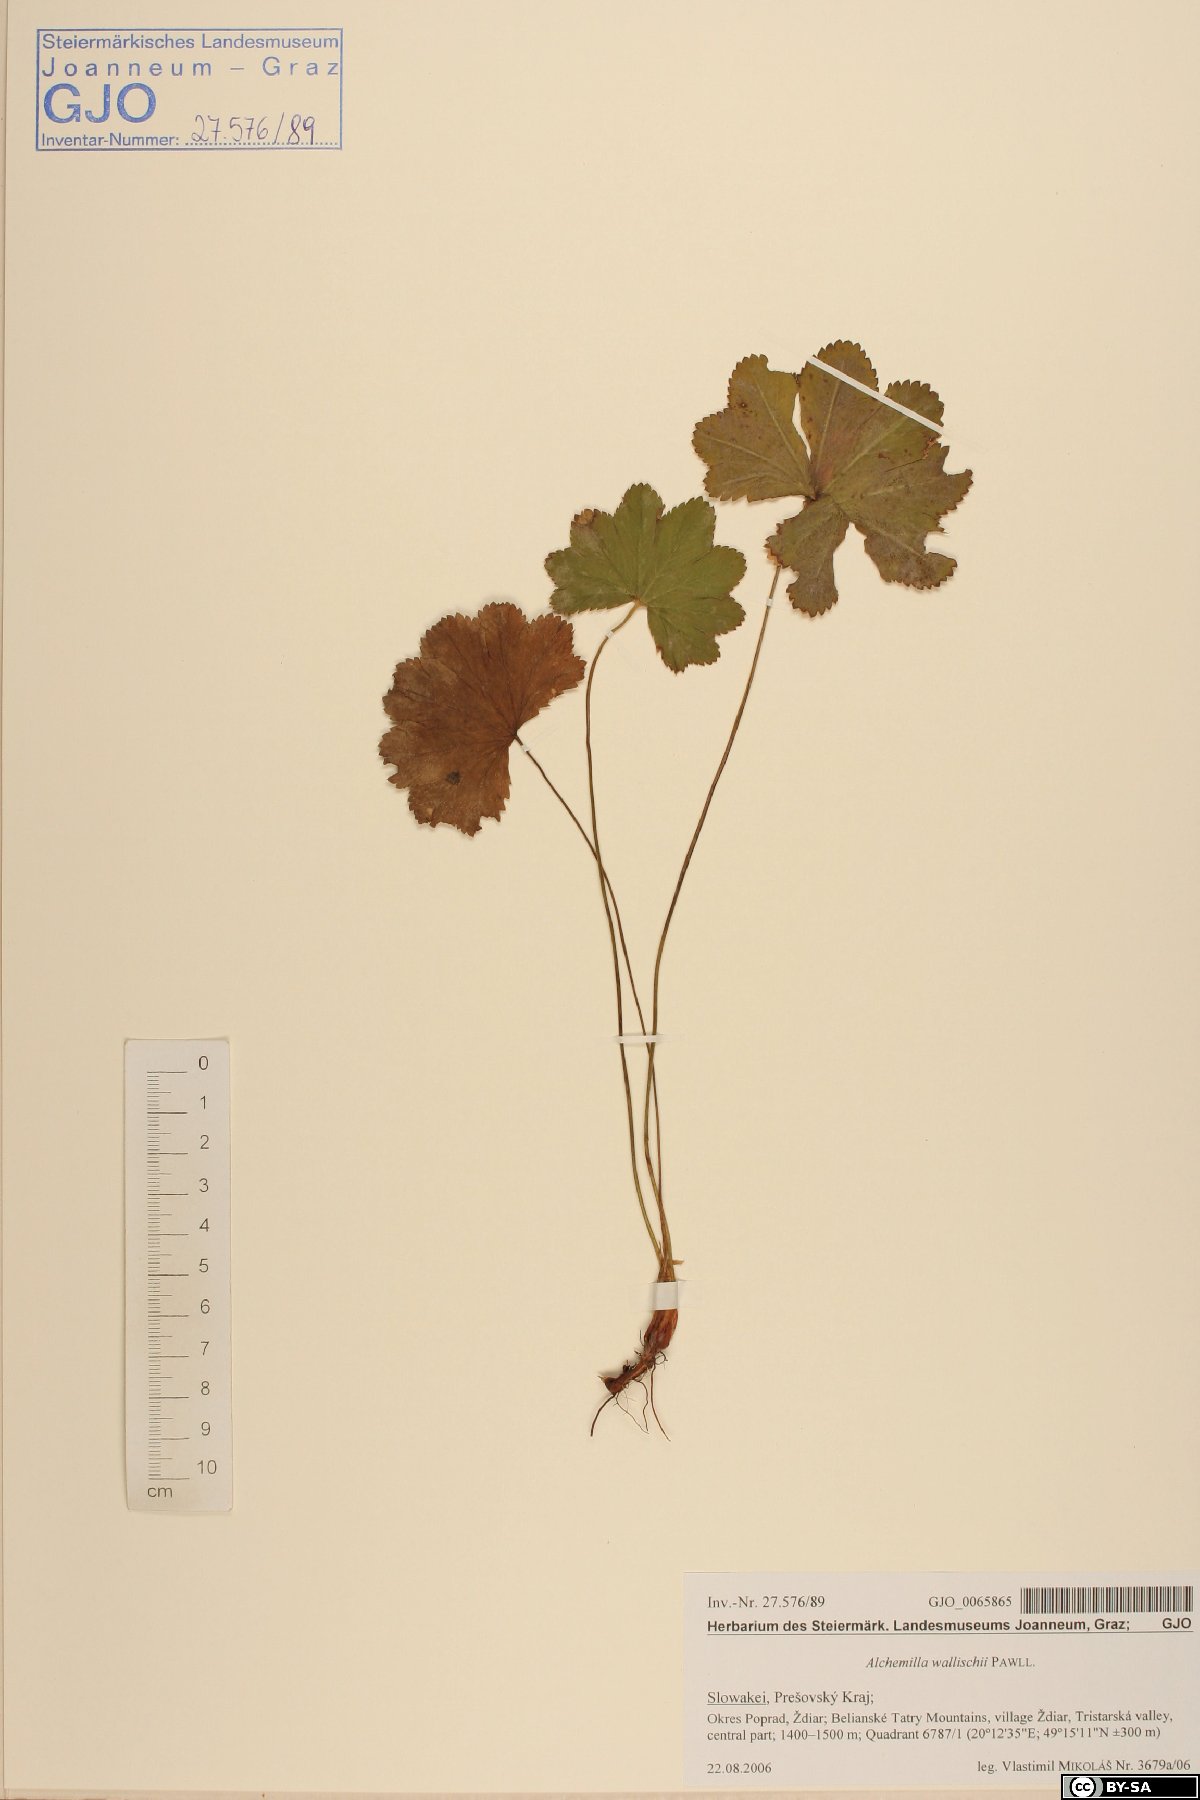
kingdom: Plantae
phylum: Tracheophyta
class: Magnoliopsida
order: Rosales
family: Rosaceae
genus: Alchemilla
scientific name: Alchemilla walasii
